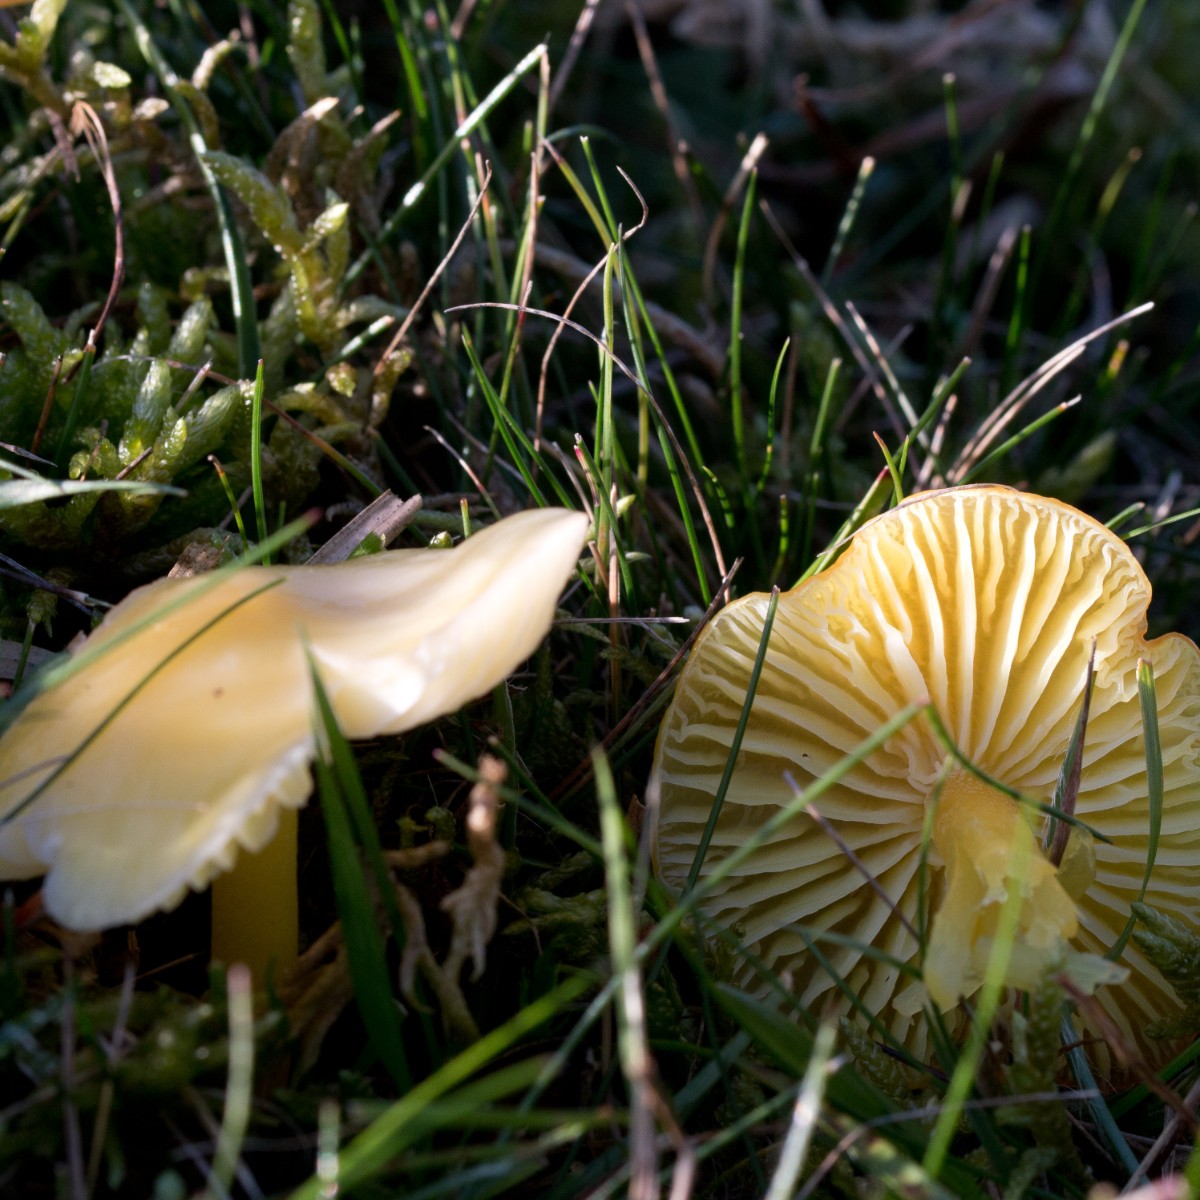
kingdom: Fungi
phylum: Basidiomycota
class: Agaricomycetes
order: Agaricales
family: Hygrophoraceae
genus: Hygrocybe
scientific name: Hygrocybe chlorophana
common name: gul vokshat
